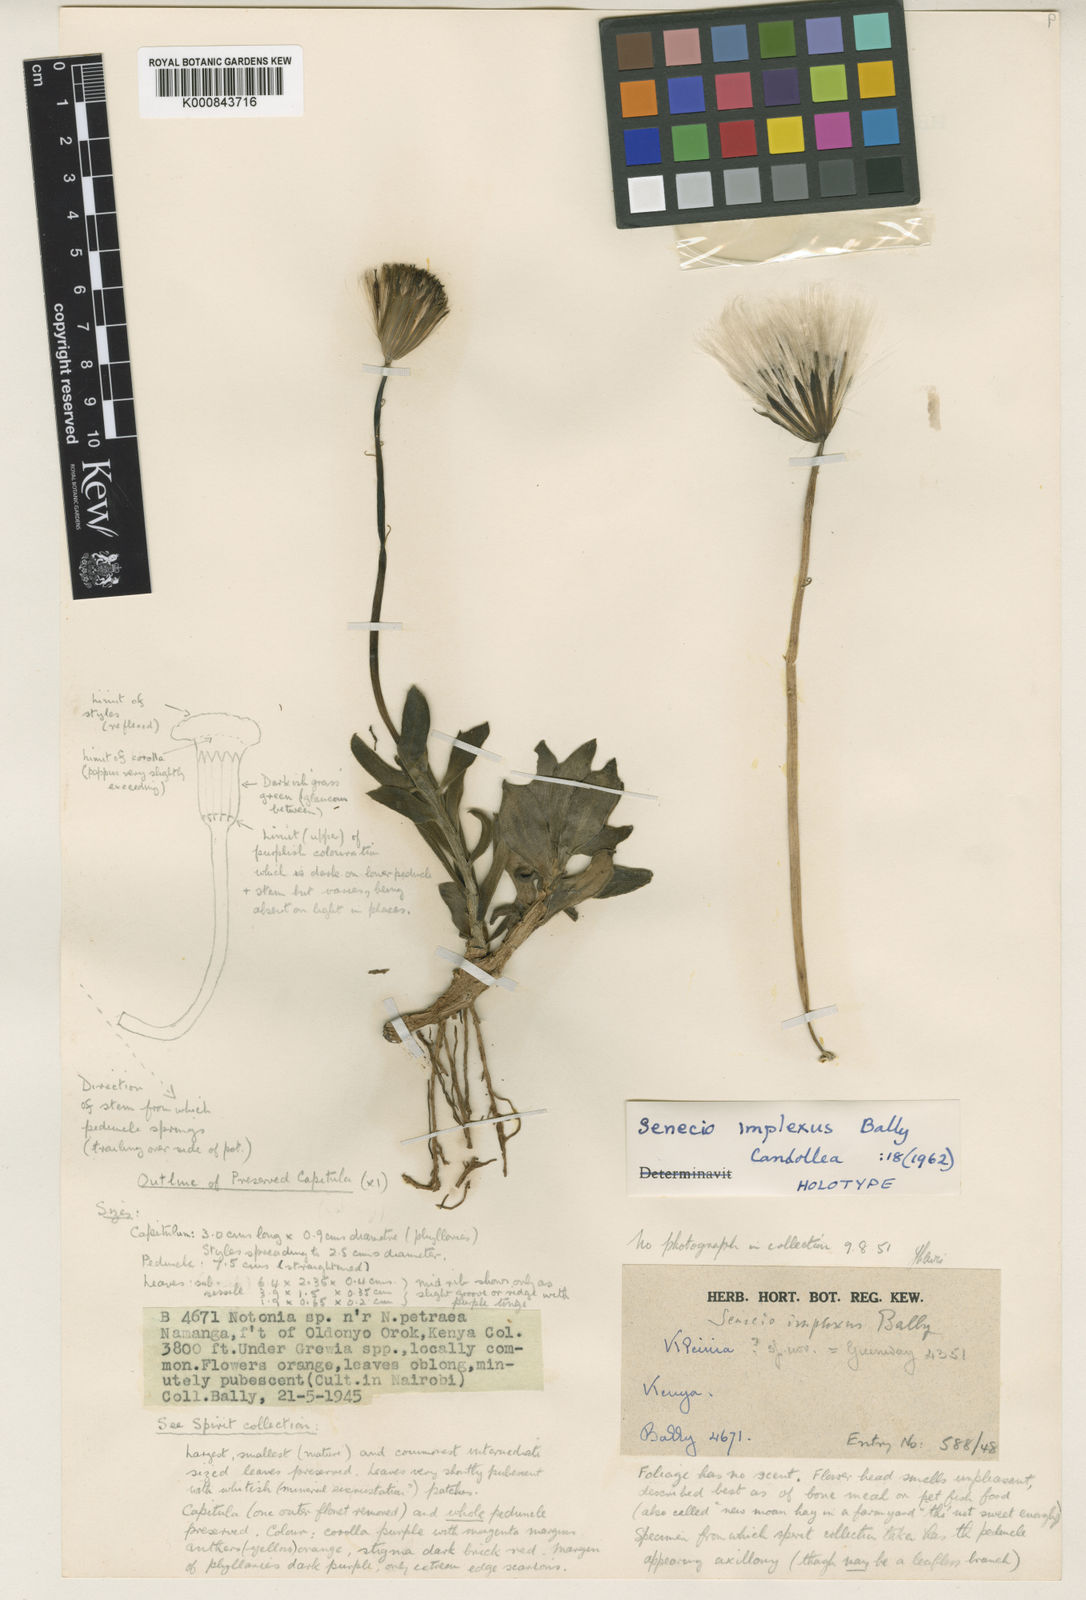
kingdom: Plantae
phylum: Tracheophyta
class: Magnoliopsida
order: Asterales
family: Asteraceae
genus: Kleinia
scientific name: Kleinia implexa
